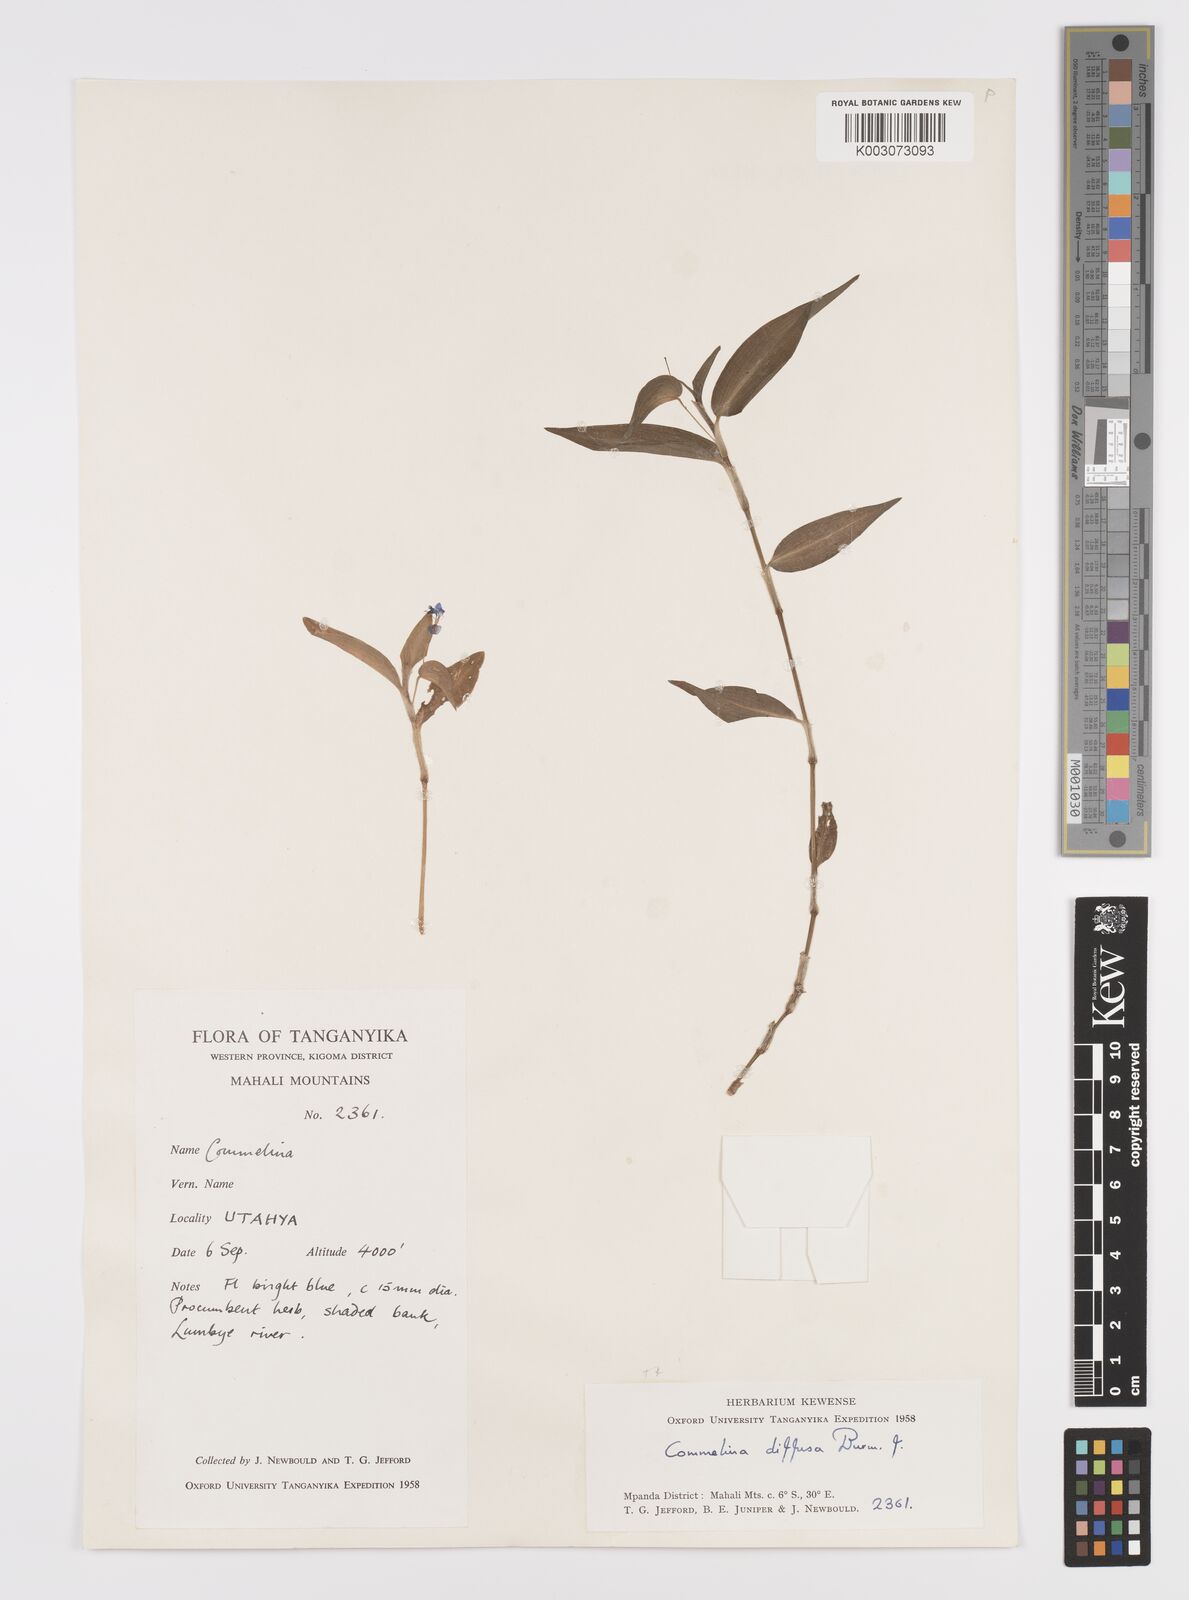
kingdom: Plantae
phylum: Tracheophyta
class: Liliopsida
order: Commelinales
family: Commelinaceae
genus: Commelina
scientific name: Commelina diffusa
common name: Climbing dayflower
